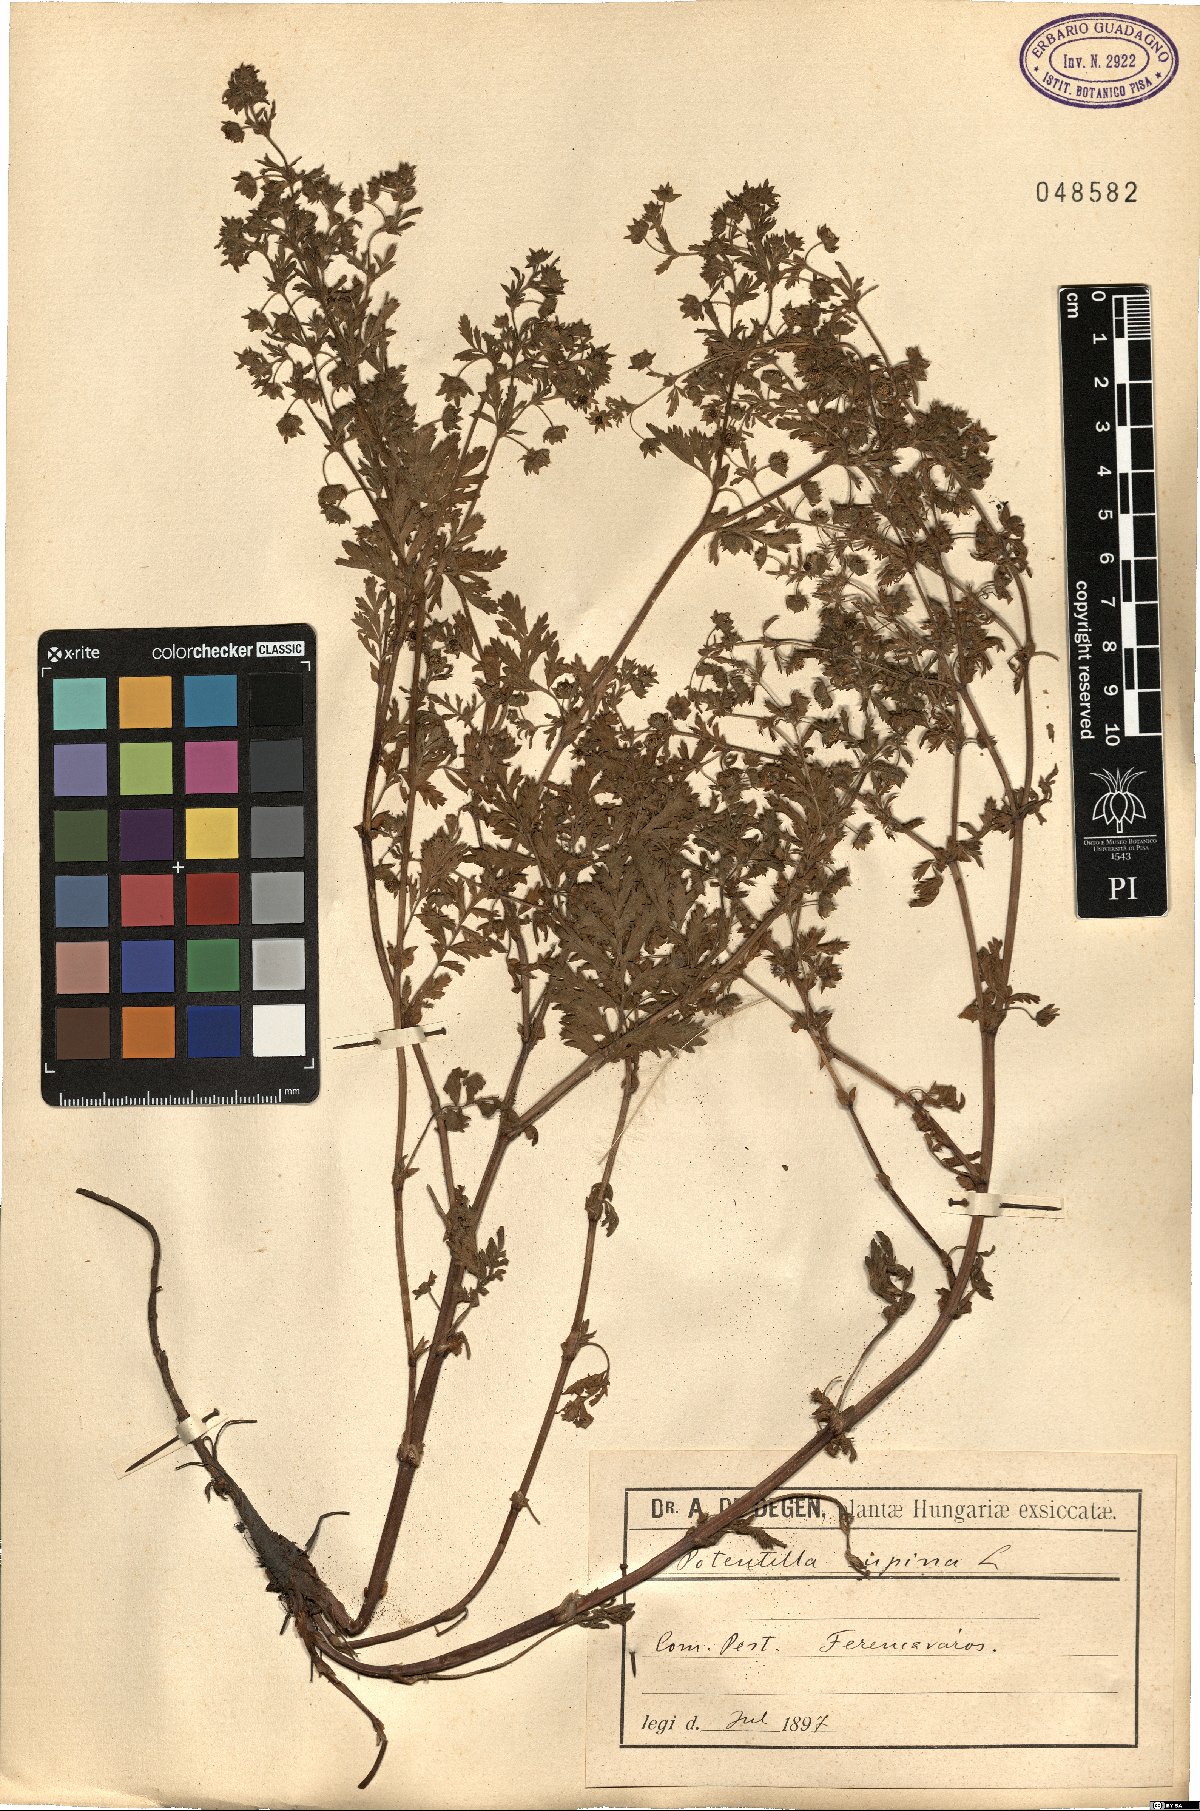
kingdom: Plantae
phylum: Tracheophyta
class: Magnoliopsida
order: Rosales
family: Rosaceae
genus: Potentilla
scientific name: Potentilla supina
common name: Prostrate cinquefoil
